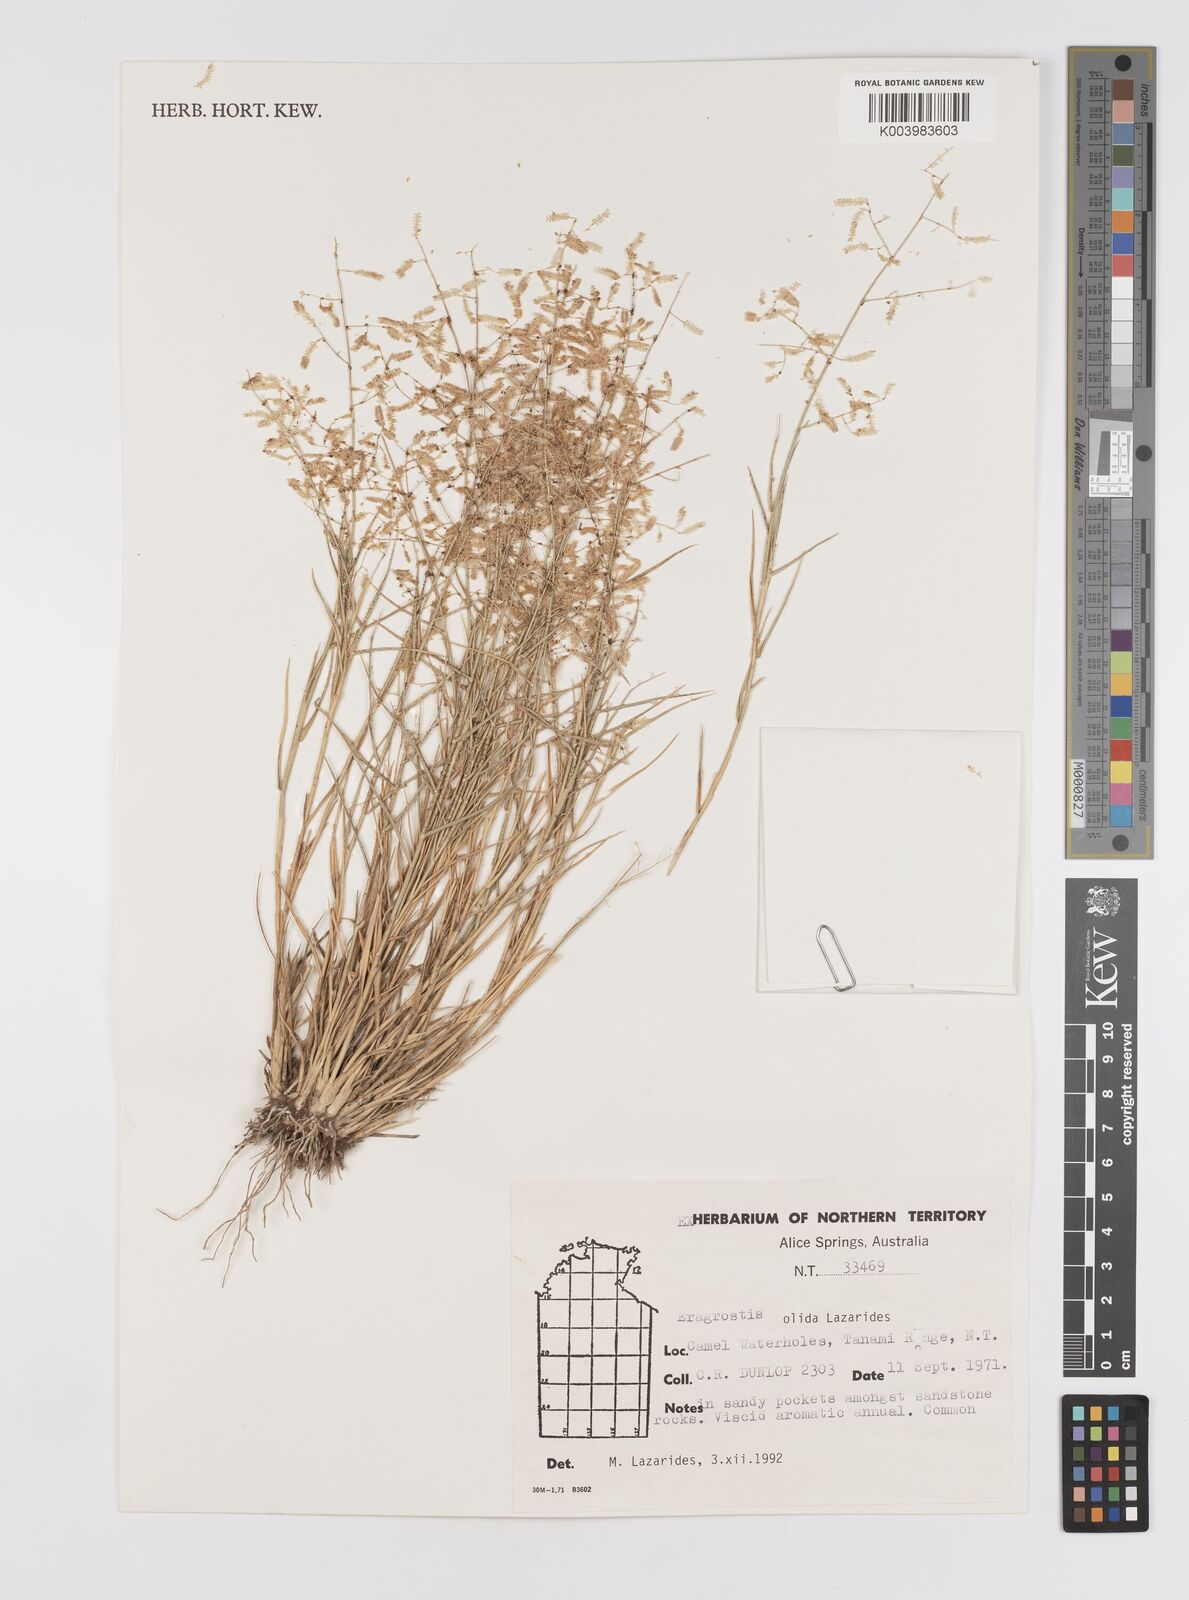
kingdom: Plantae
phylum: Tracheophyta
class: Liliopsida
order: Poales
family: Poaceae
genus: Eragrostis
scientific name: Eragrostis olida
